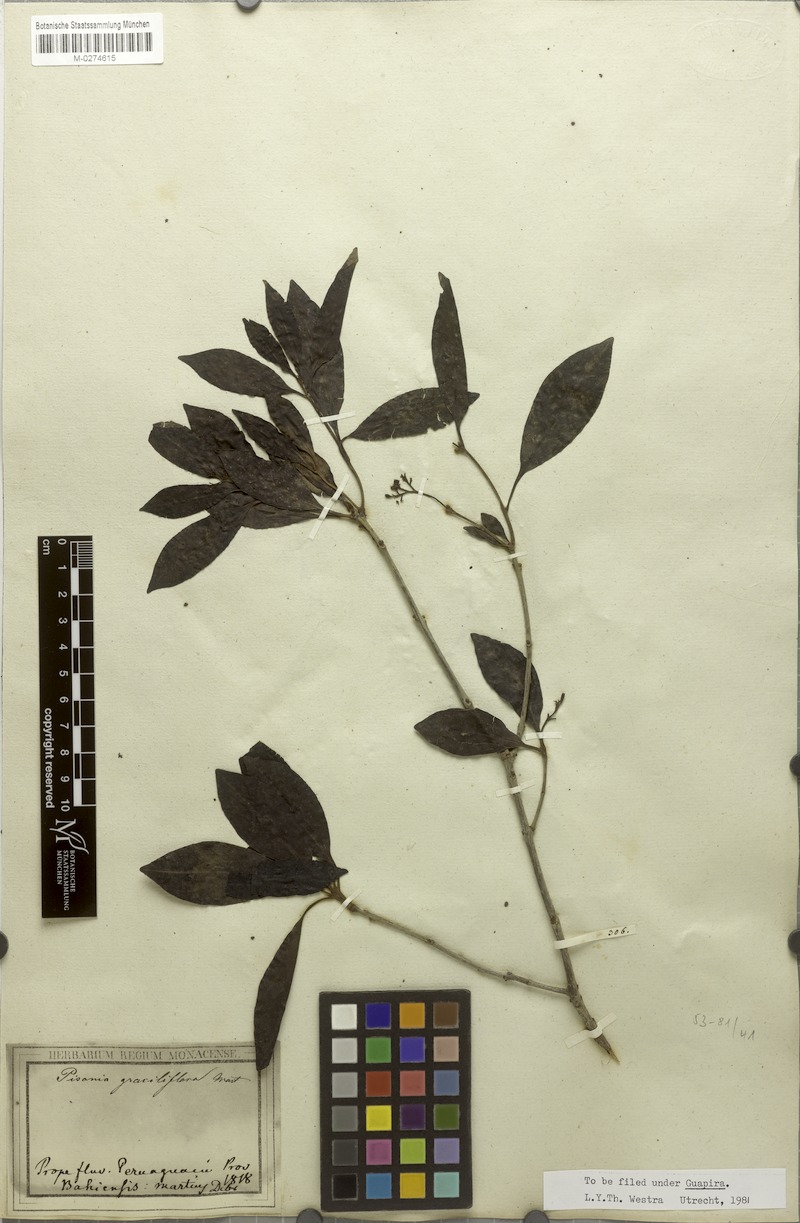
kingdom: Plantae
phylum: Tracheophyta
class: Magnoliopsida
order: Caryophyllales
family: Nyctaginaceae
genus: Guapira
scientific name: Guapira graciliflora
